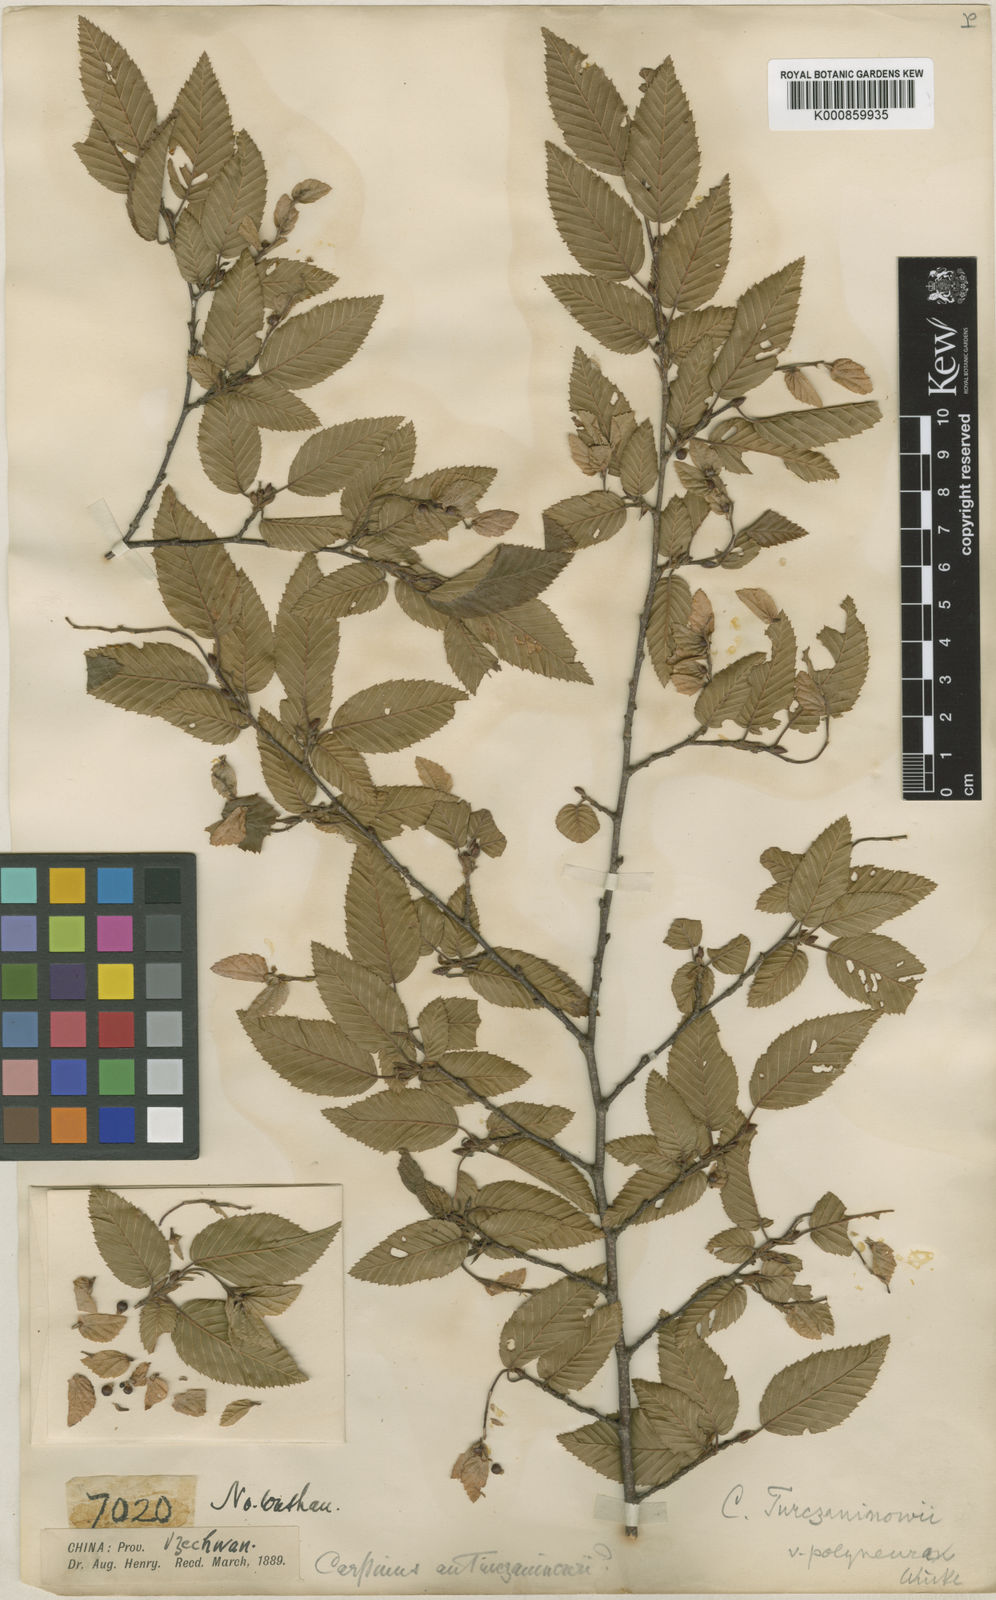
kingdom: Plantae
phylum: Tracheophyta
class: Magnoliopsida
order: Fagales
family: Betulaceae
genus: Carpinus
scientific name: Carpinus
